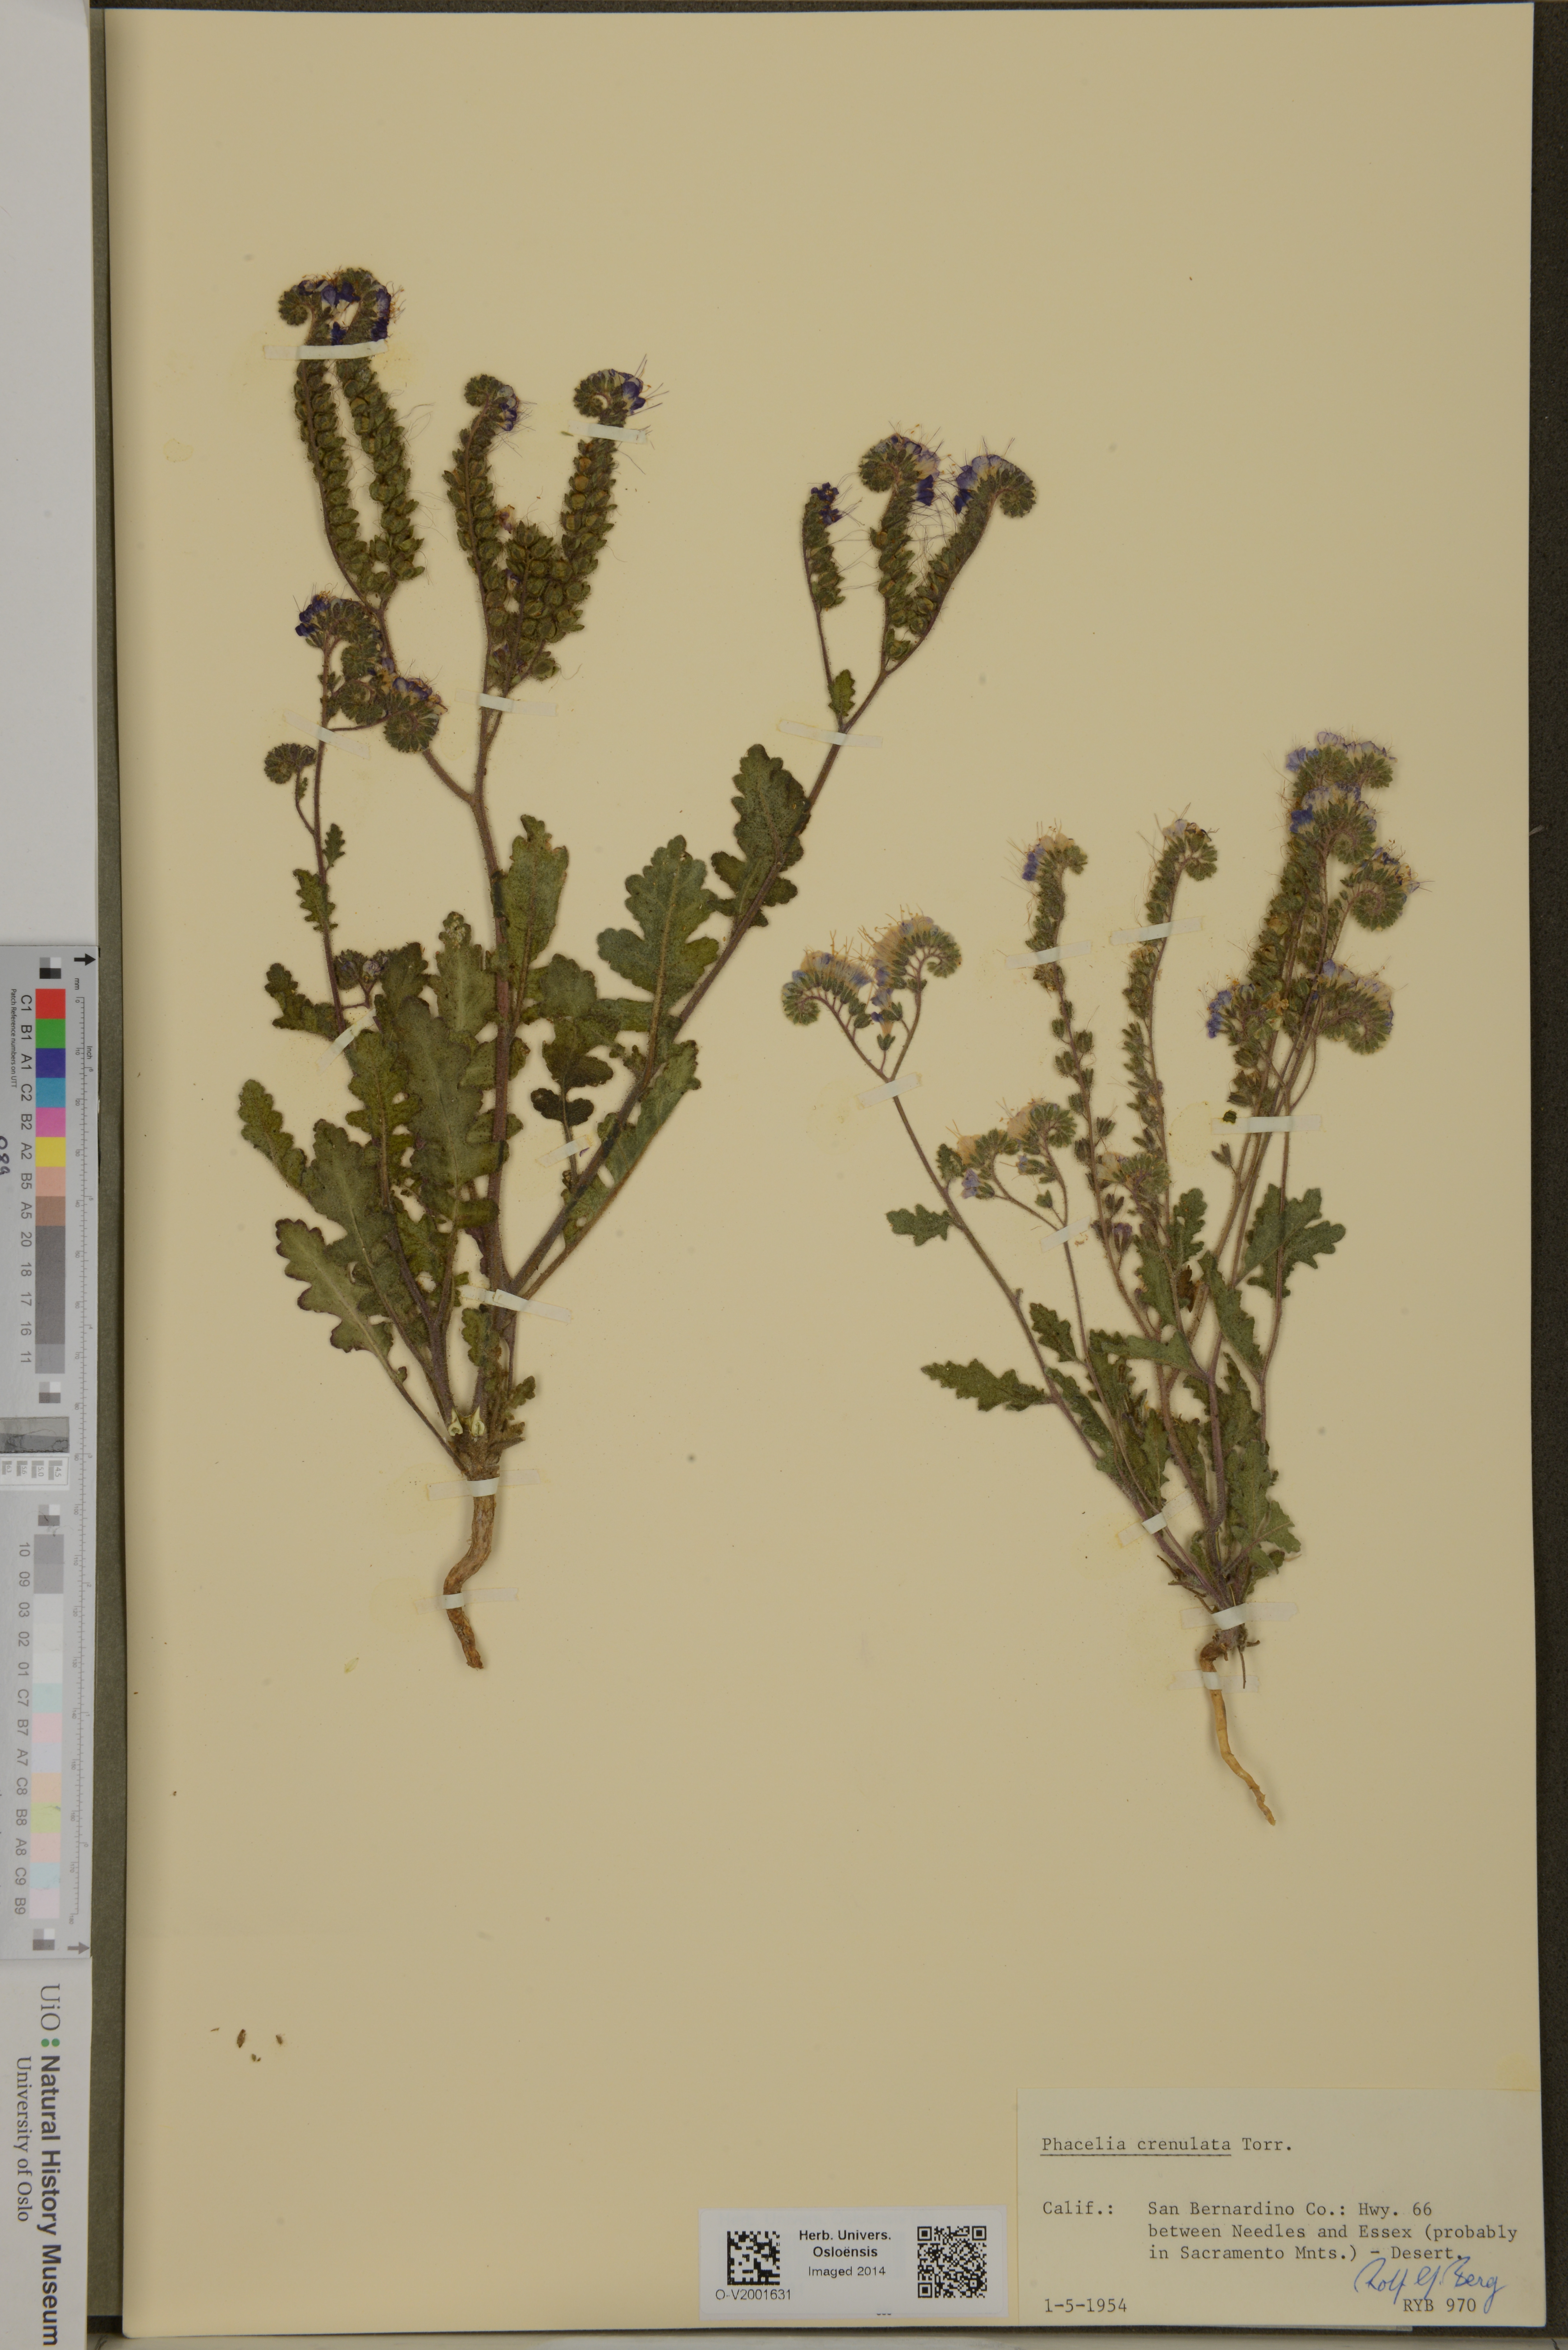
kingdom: Plantae
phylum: Tracheophyta
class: Magnoliopsida
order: Boraginales
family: Hydrophyllaceae
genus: Phacelia
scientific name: Phacelia crenulata
